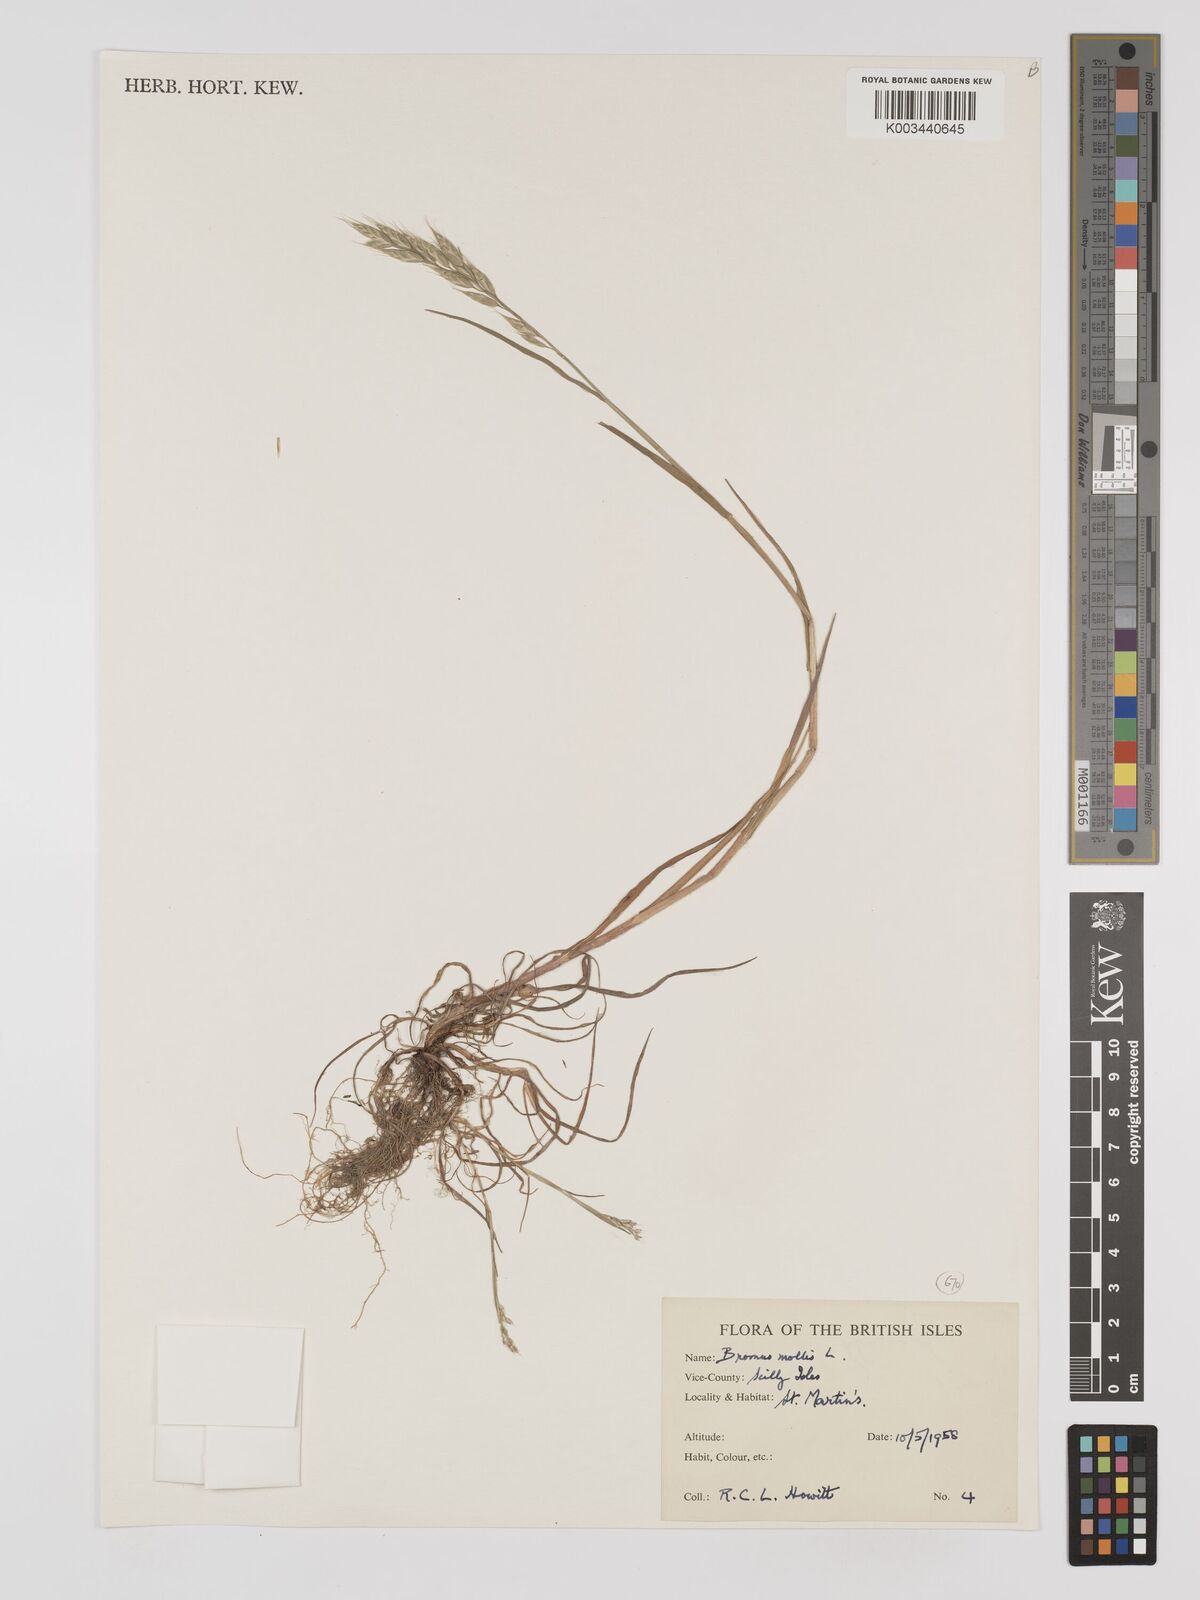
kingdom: Plantae
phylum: Tracheophyta
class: Liliopsida
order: Poales
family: Poaceae
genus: Bromus
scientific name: Bromus hordeaceus
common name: Soft brome
